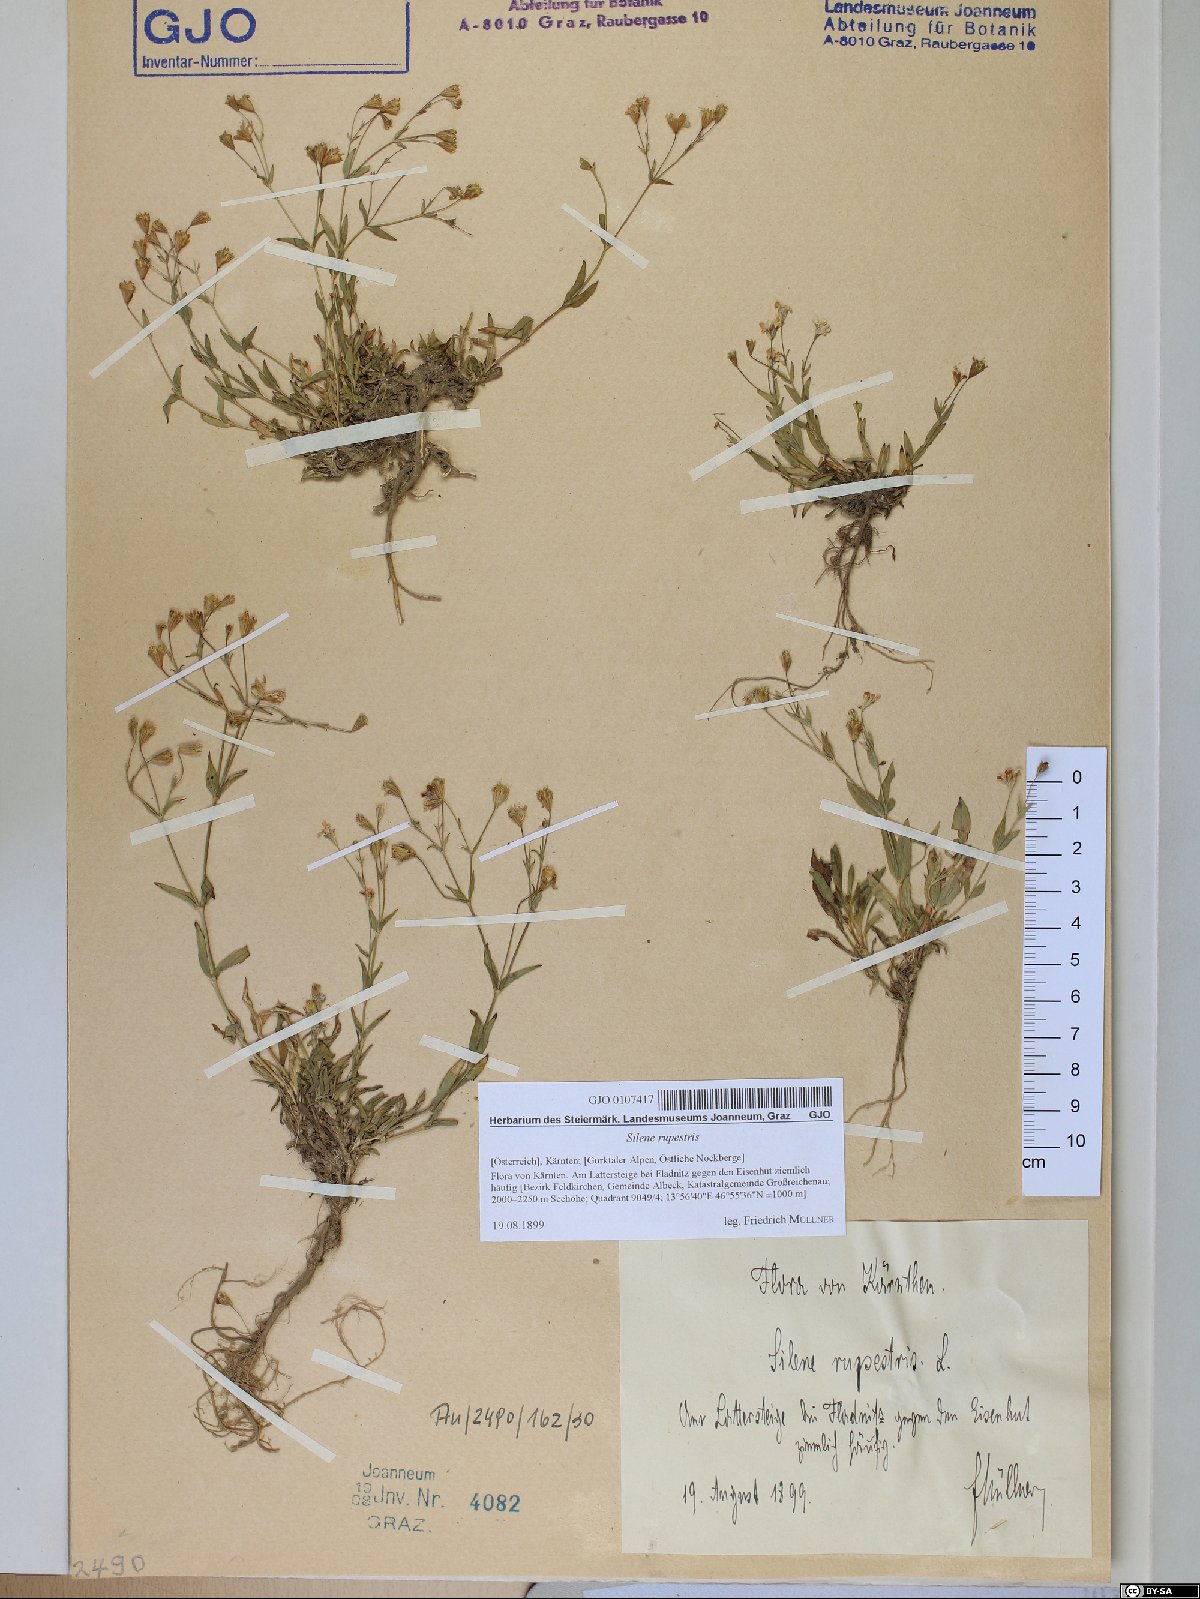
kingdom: Plantae
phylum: Tracheophyta
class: Magnoliopsida
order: Caryophyllales
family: Caryophyllaceae
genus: Atocion
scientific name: Atocion rupestre
